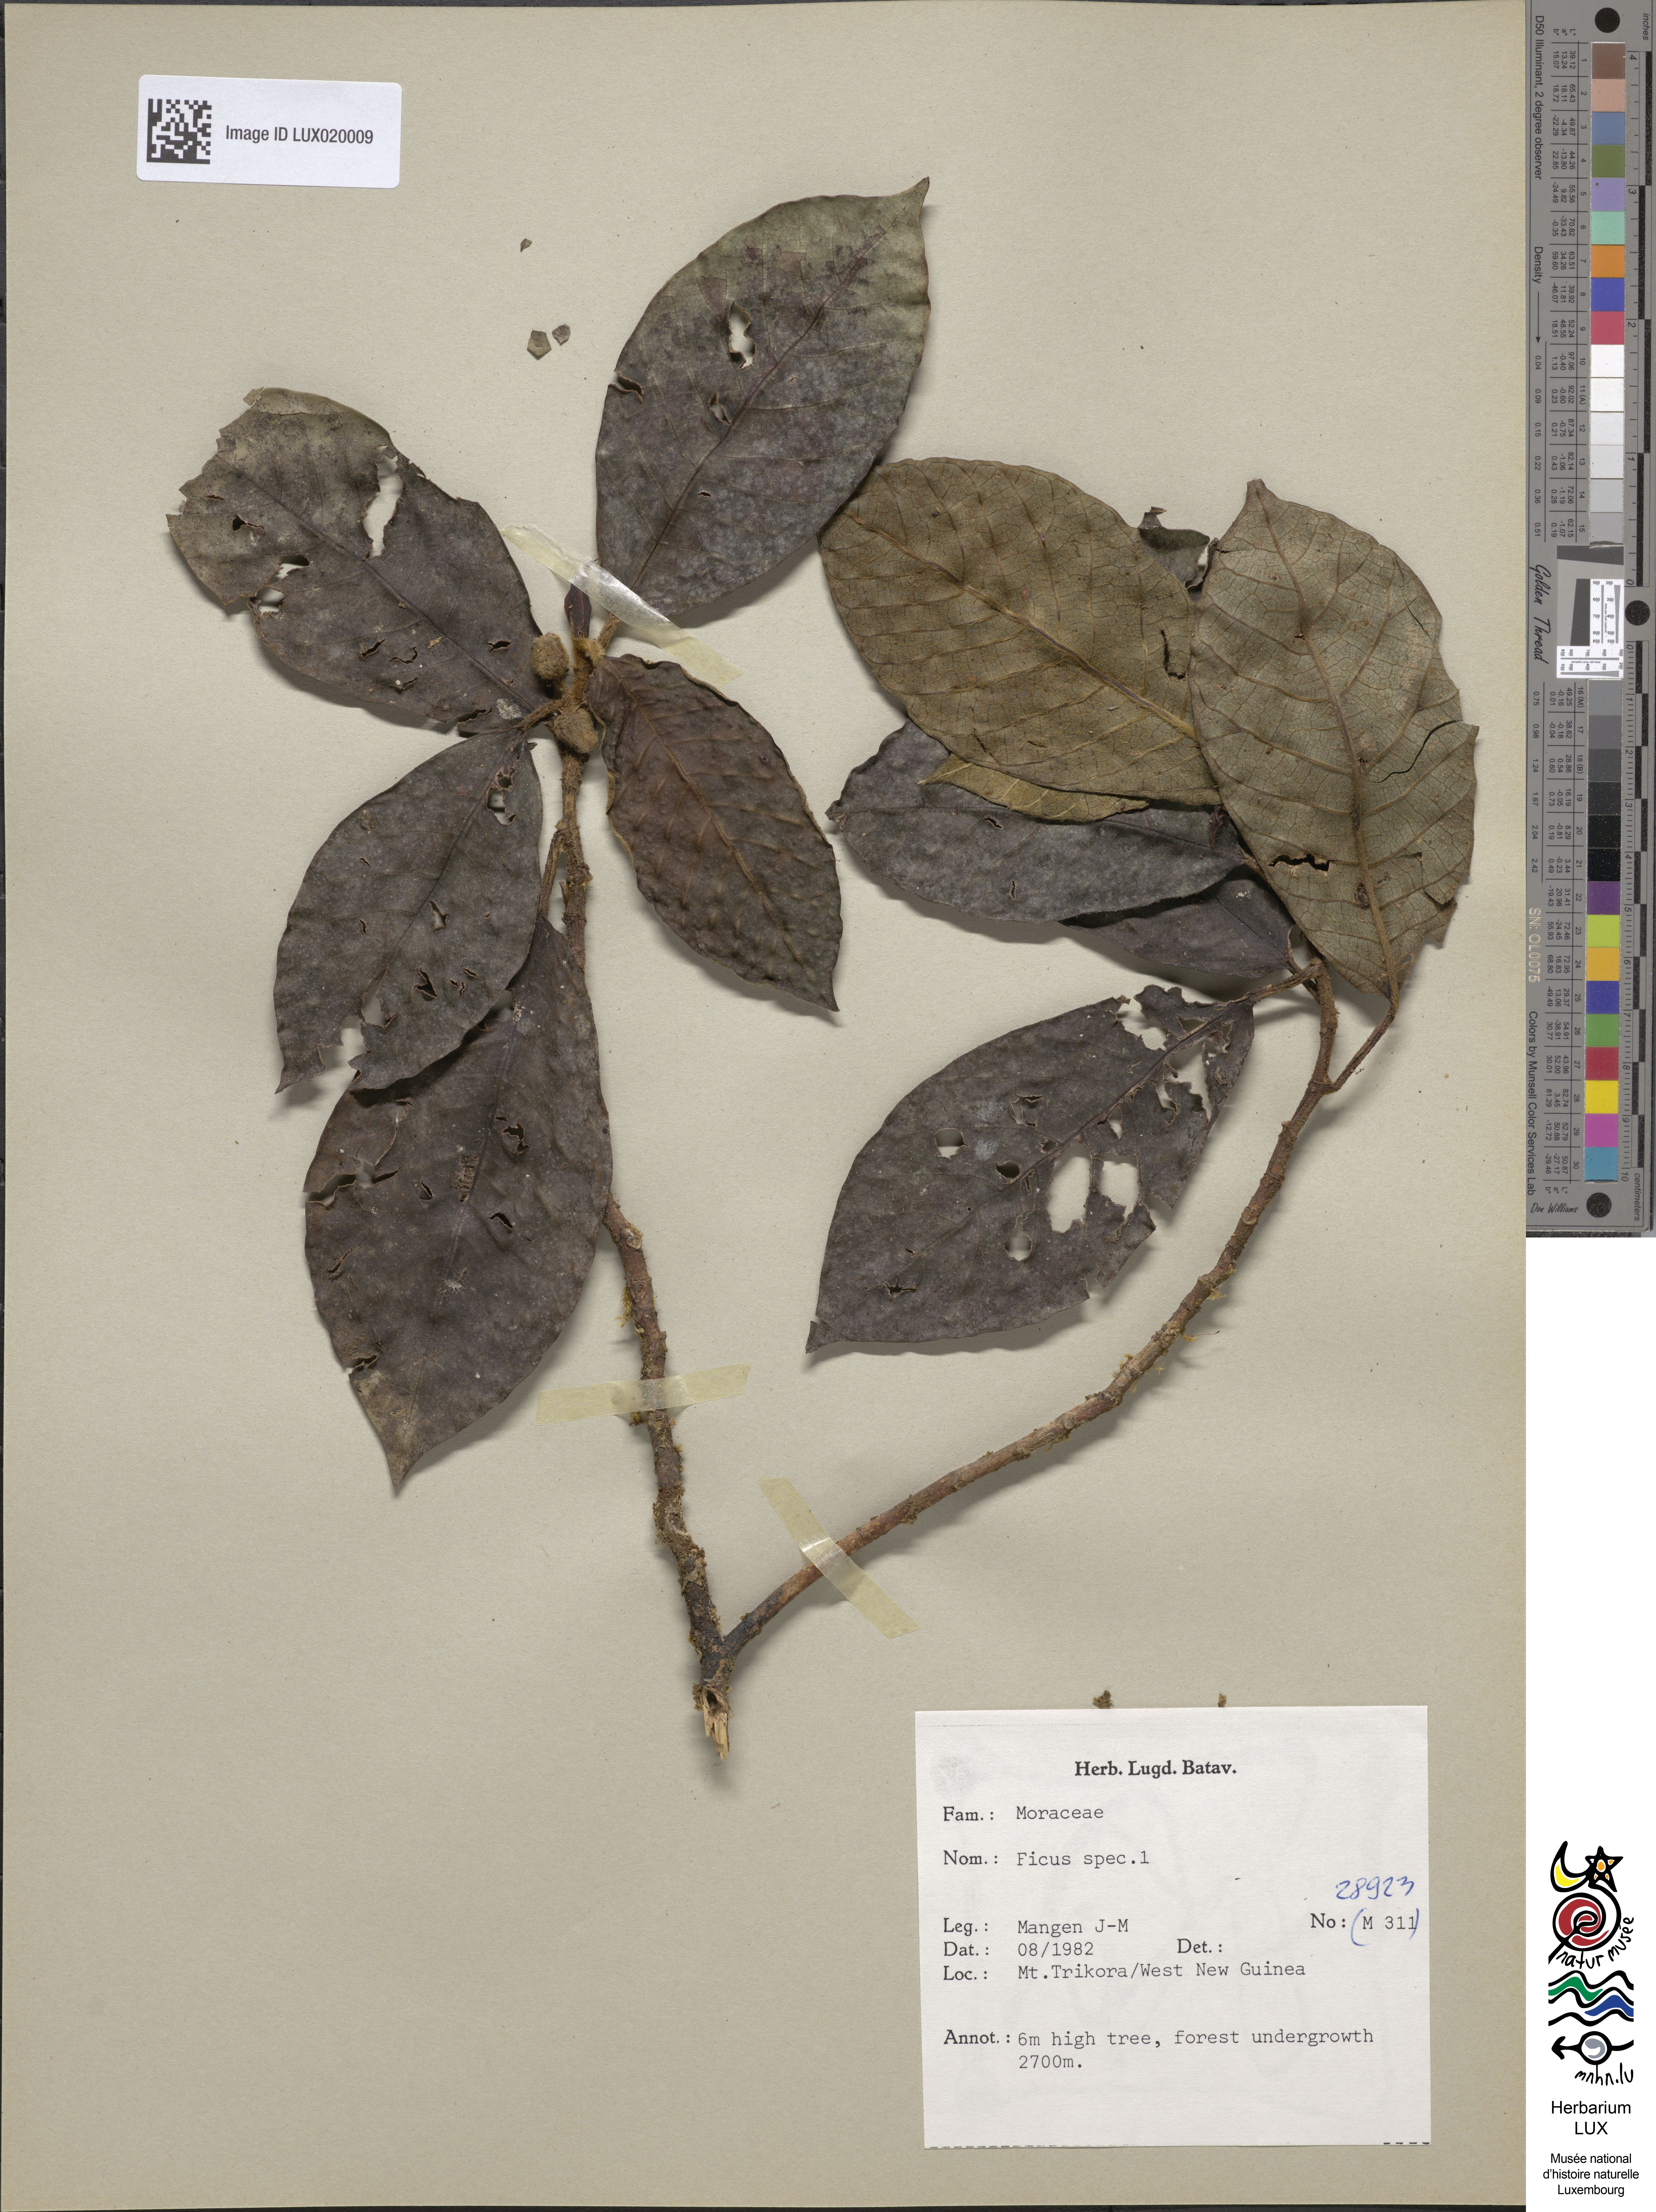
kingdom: Plantae
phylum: Tracheophyta
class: Magnoliopsida
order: Rosales
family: Moraceae
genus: Ficus
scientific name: Ficus
